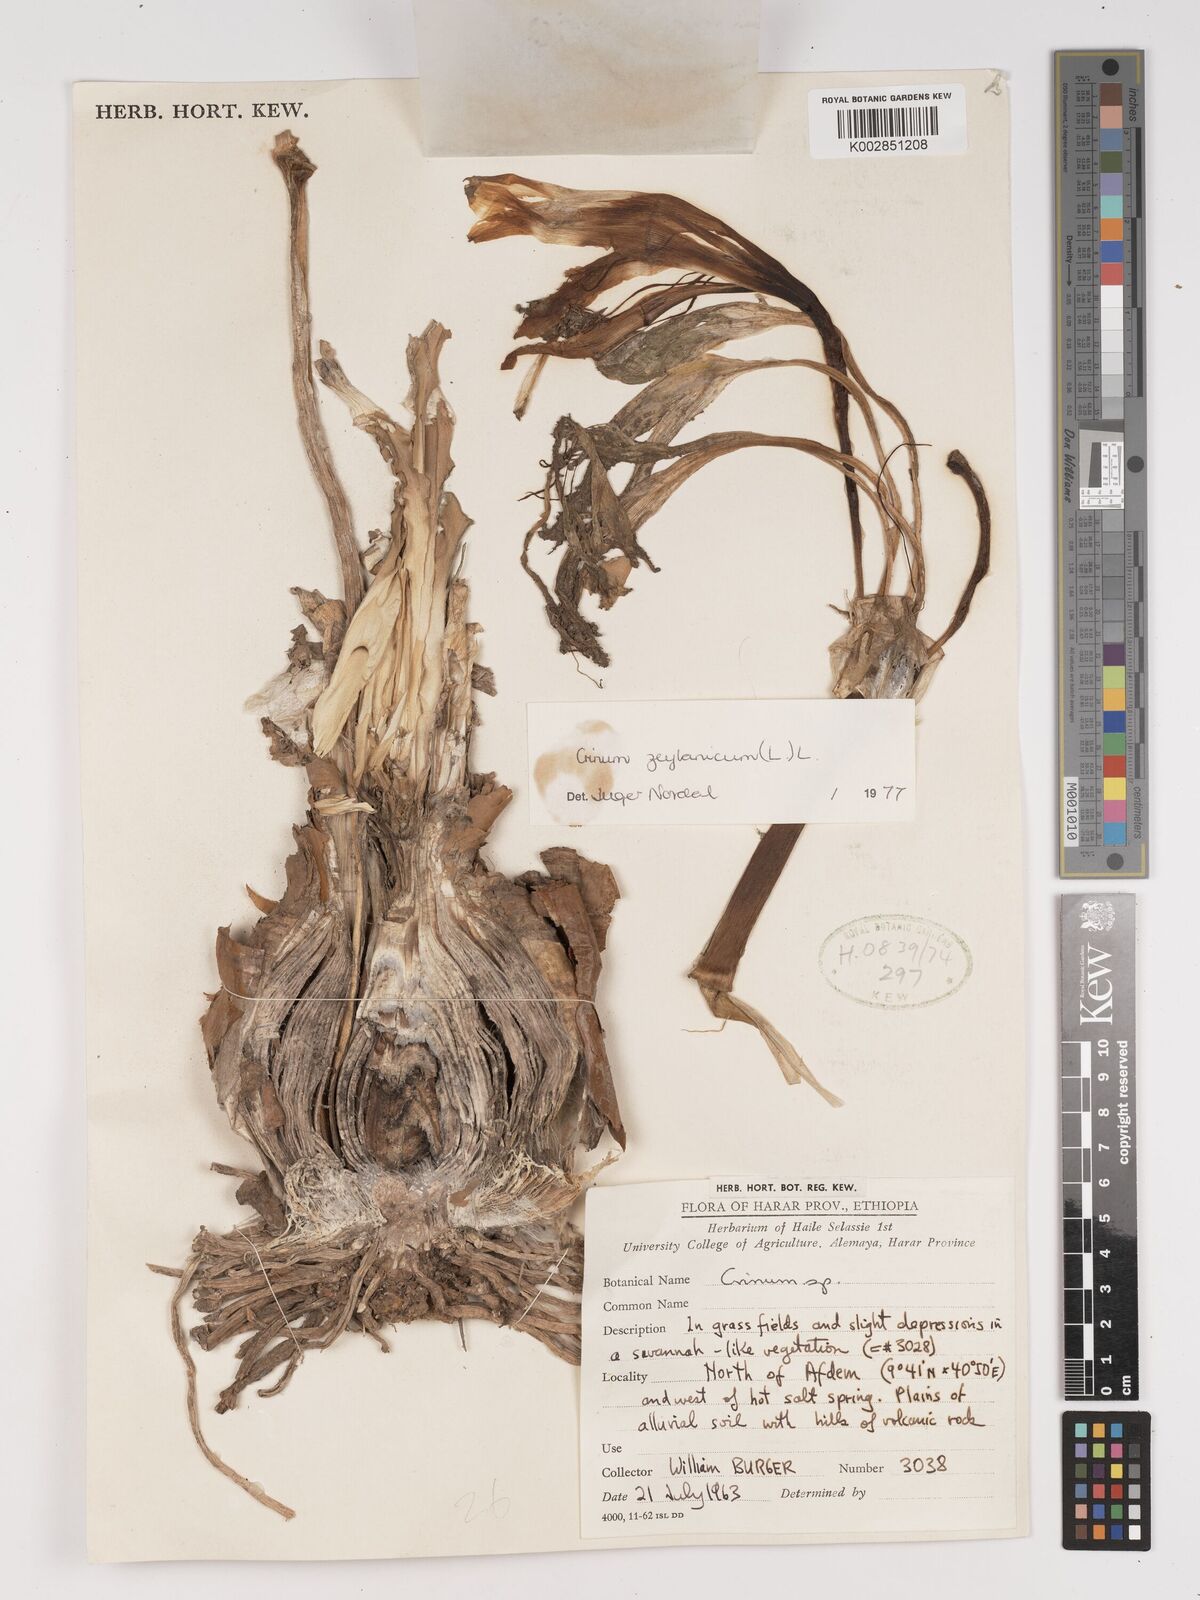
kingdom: Plantae
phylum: Tracheophyta
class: Liliopsida
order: Asparagales
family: Amaryllidaceae
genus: Crinum
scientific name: Crinum zeylanicum
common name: Ceylon swamplily
